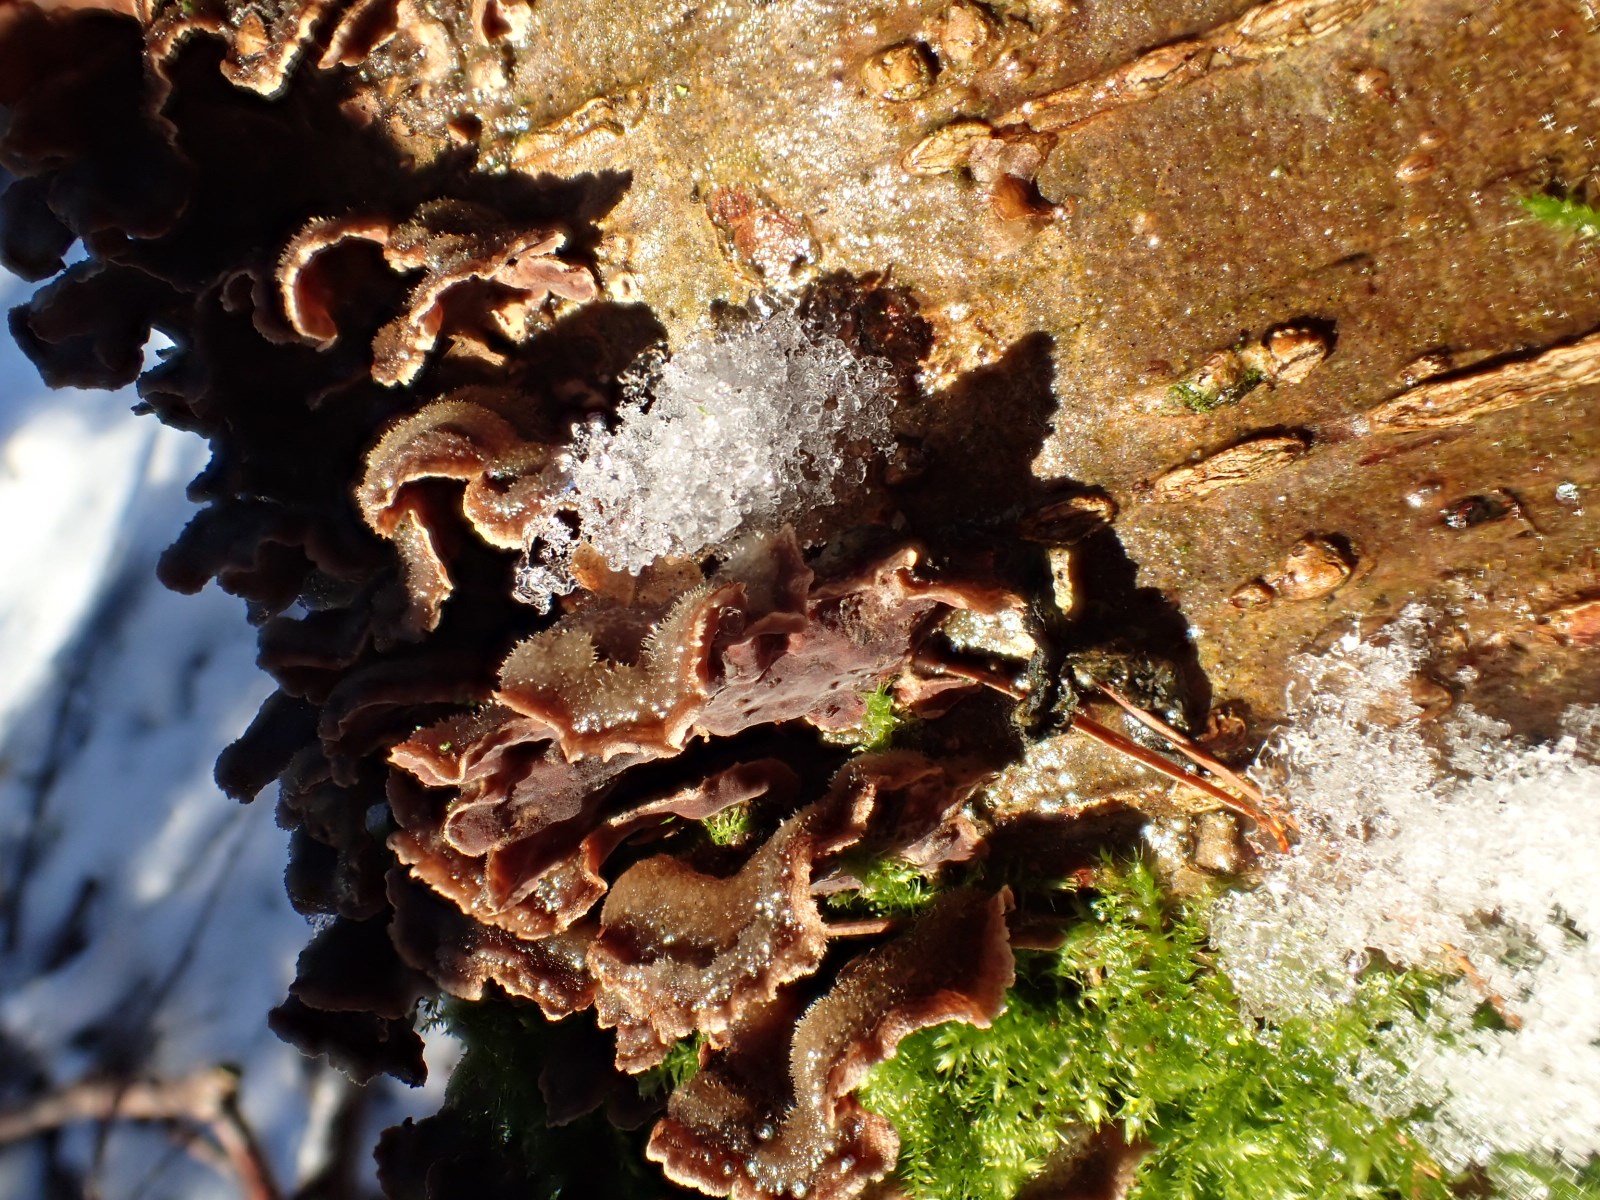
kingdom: Fungi
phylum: Basidiomycota
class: Agaricomycetes
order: Agaricales
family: Cyphellaceae
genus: Chondrostereum
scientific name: Chondrostereum purpureum
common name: purpurlædersvamp
